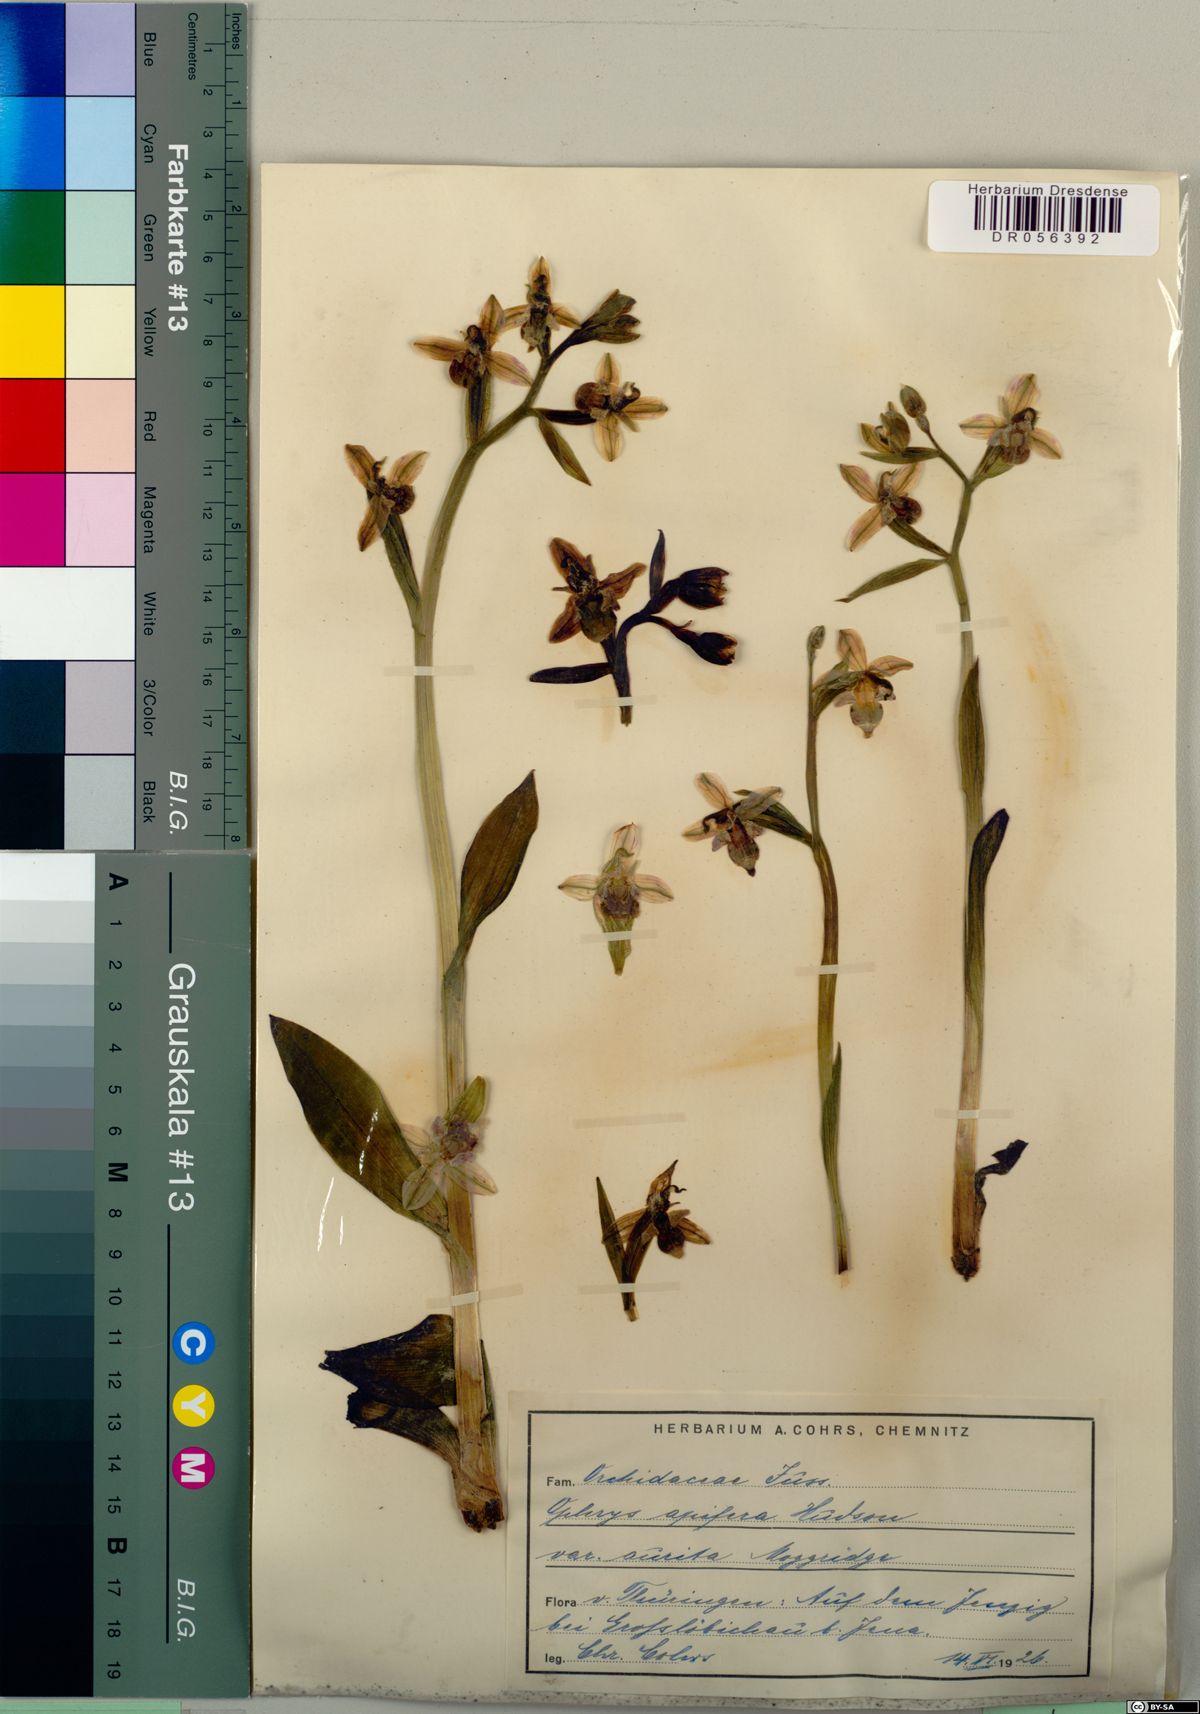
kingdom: Plantae
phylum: Tracheophyta
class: Liliopsida
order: Asparagales
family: Orchidaceae
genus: Ophrys
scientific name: Ophrys apifera
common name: Bee orchid
